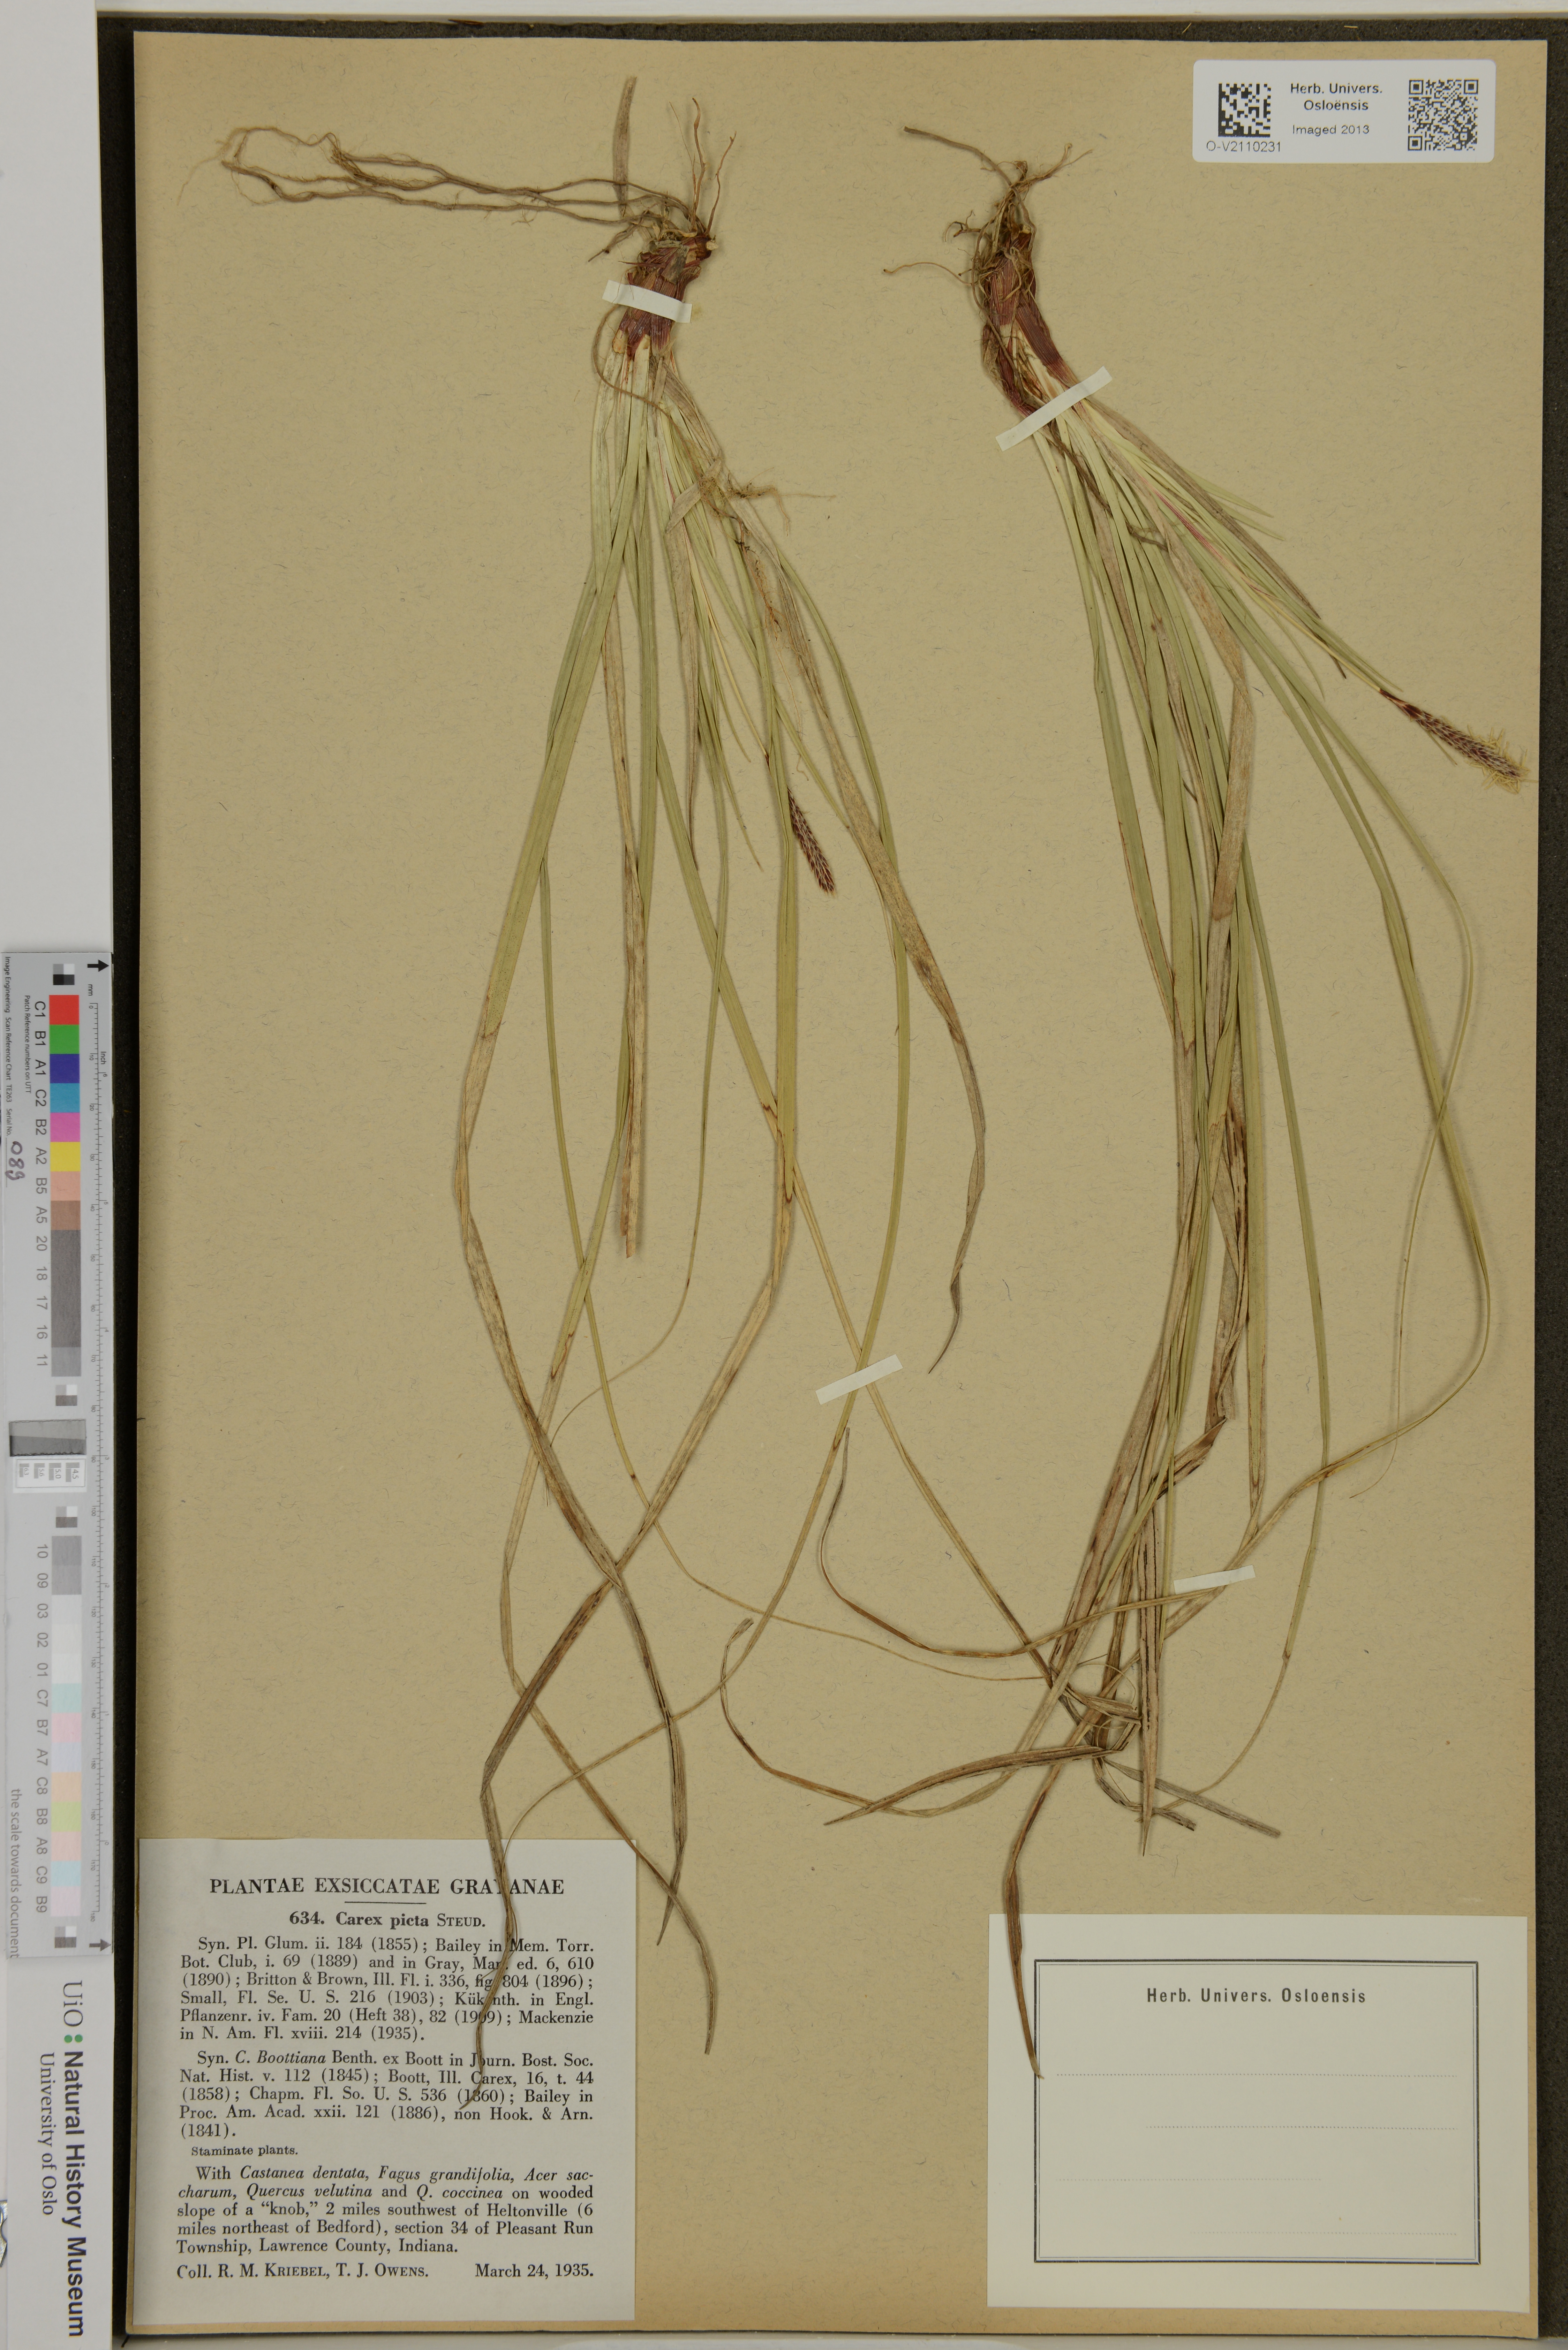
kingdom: Plantae
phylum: Tracheophyta
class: Liliopsida
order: Poales
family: Cyperaceae
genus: Carex
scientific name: Carex picta
